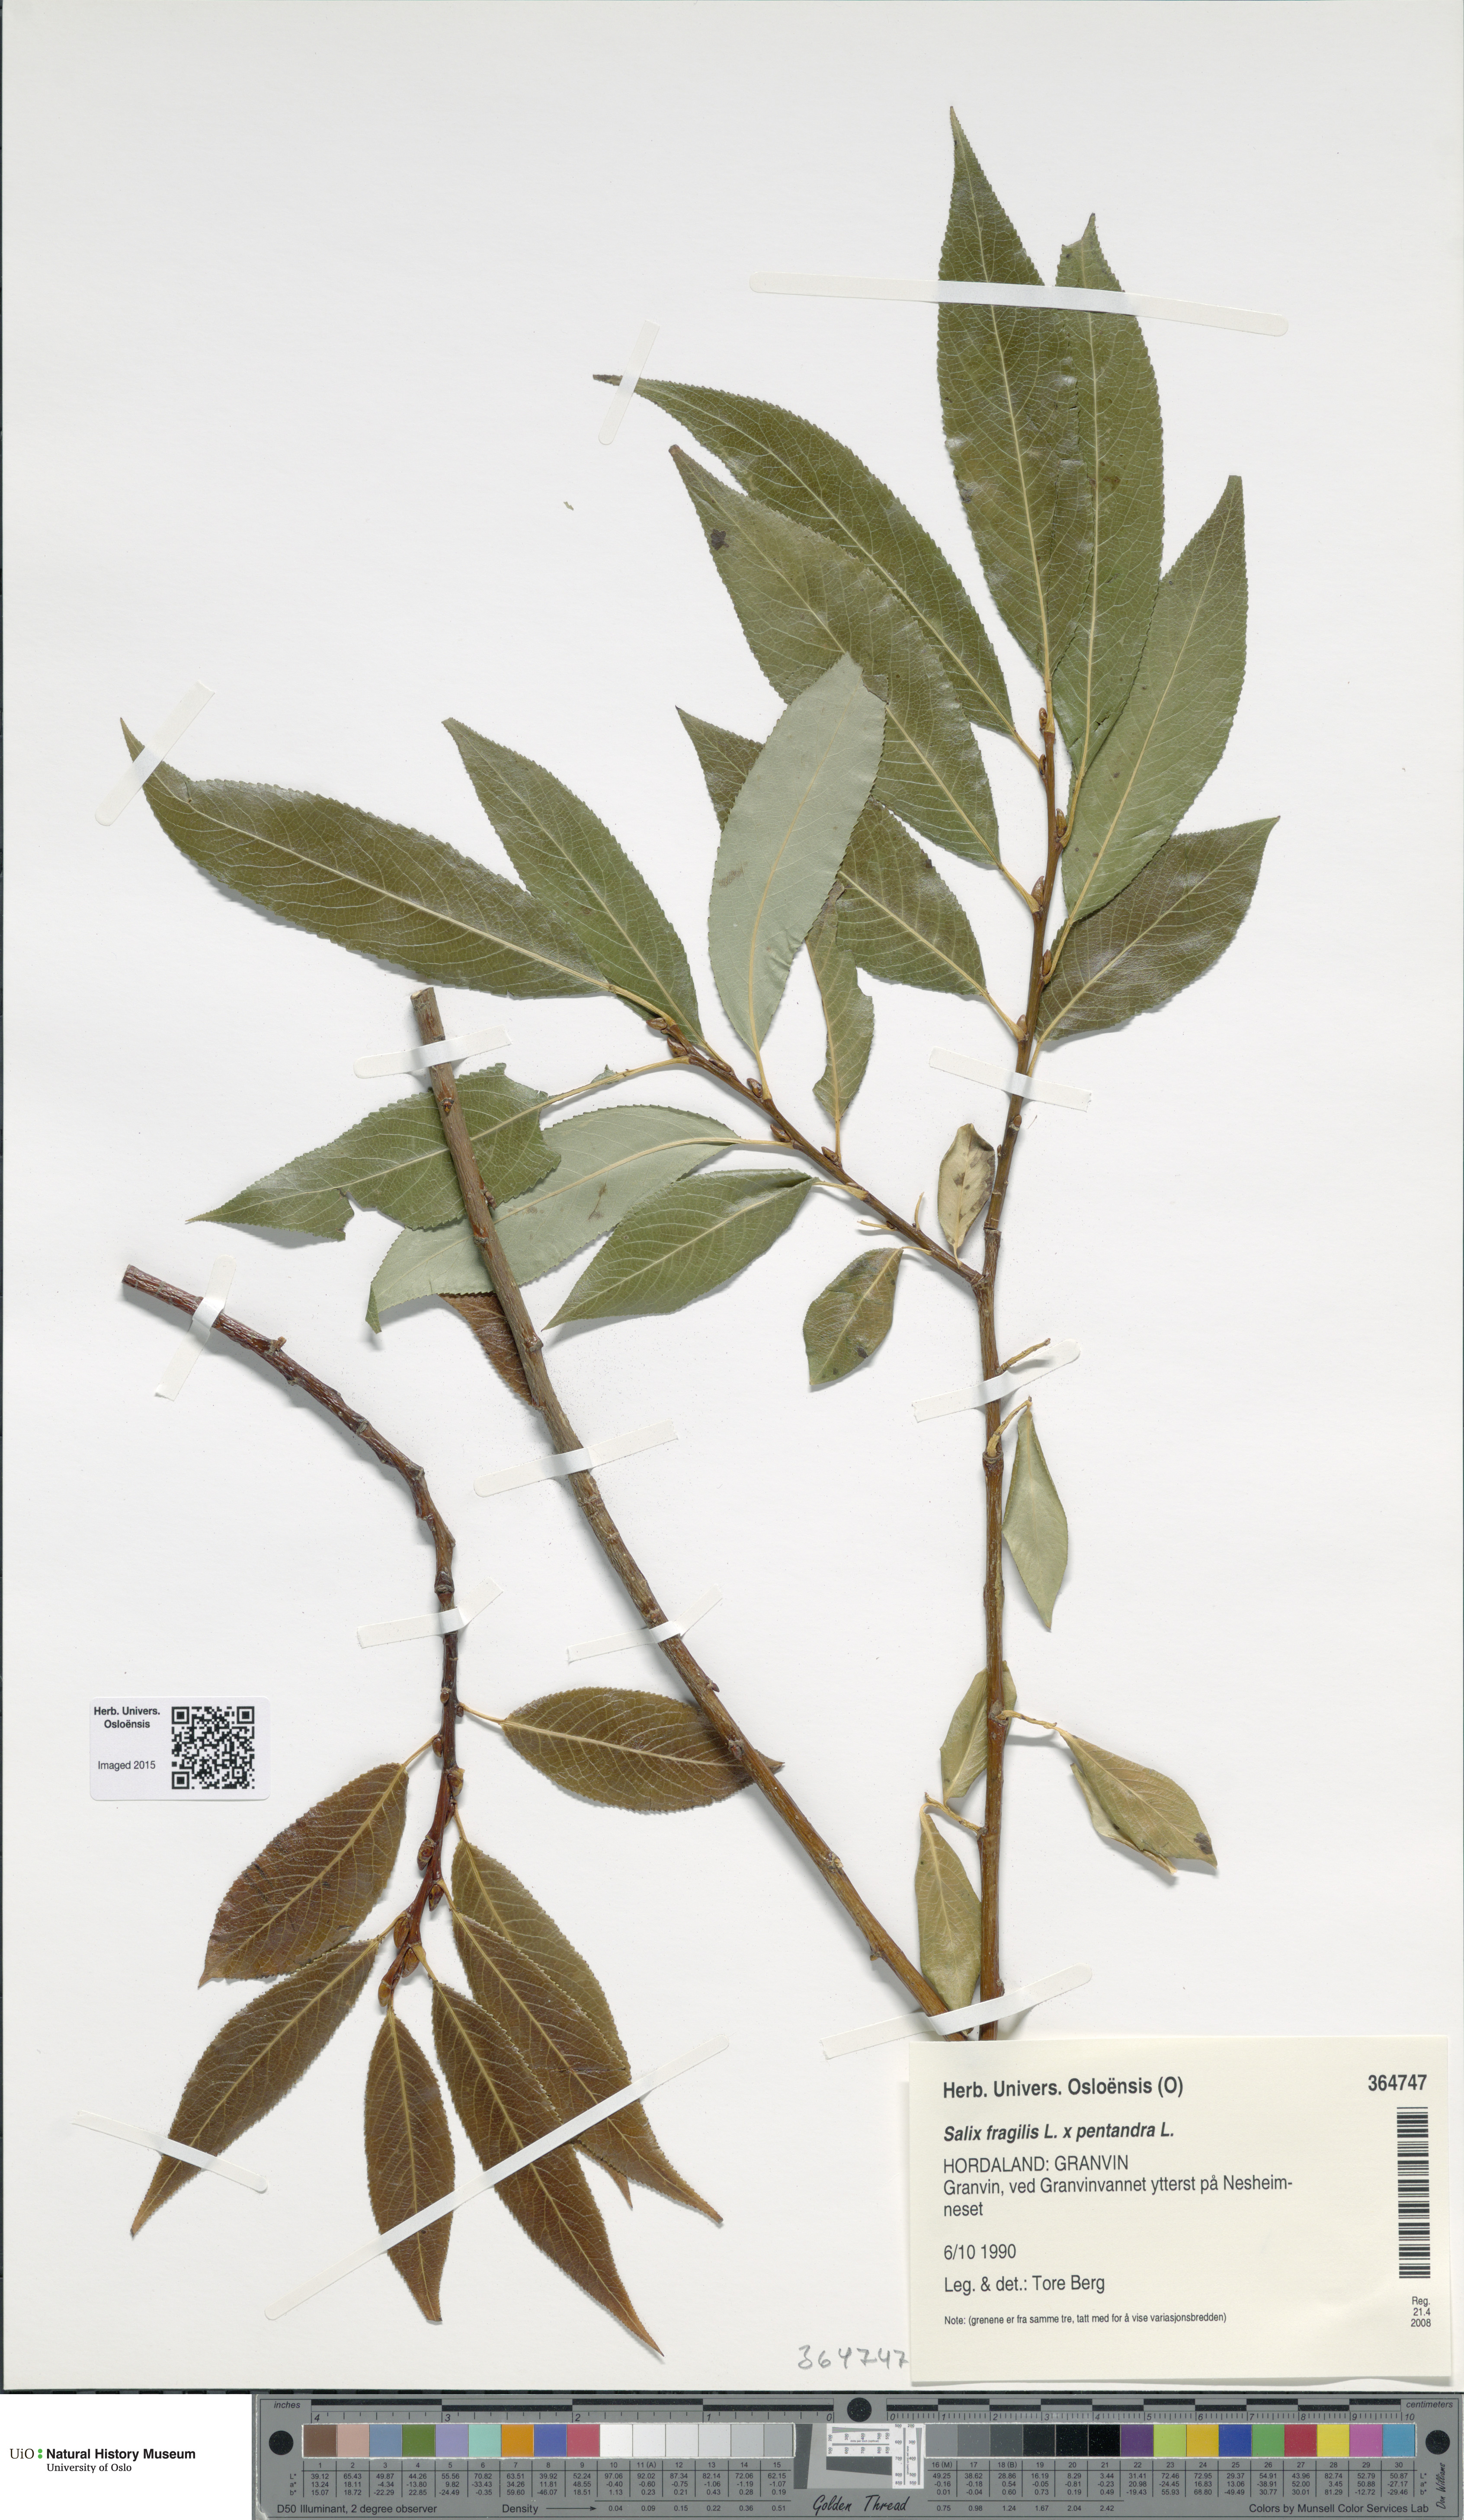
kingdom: Plantae
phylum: Tracheophyta
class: Magnoliopsida
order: Malpighiales
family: Salicaceae
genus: Salix
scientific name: Salix
